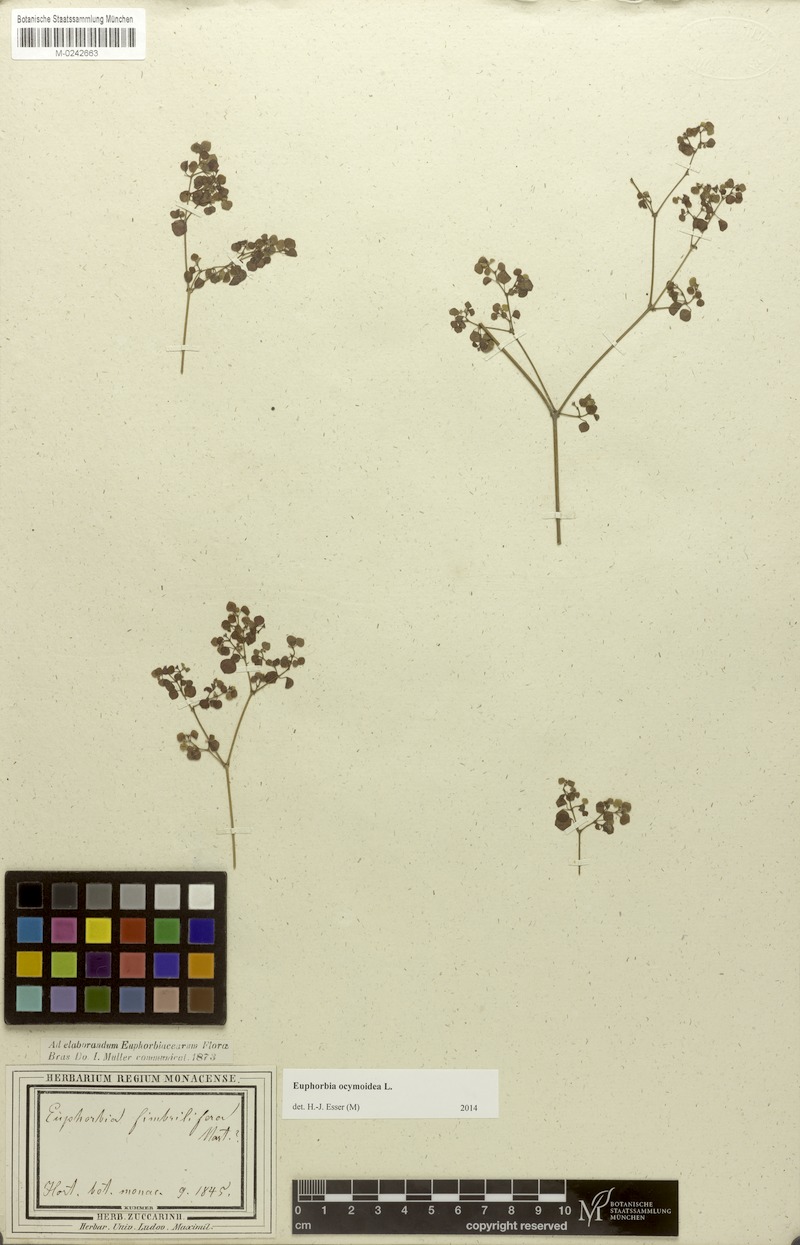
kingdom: Plantae
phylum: Tracheophyta
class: Magnoliopsida
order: Malpighiales
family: Euphorbiaceae
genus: Euphorbia
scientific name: Euphorbia ocymoidea
